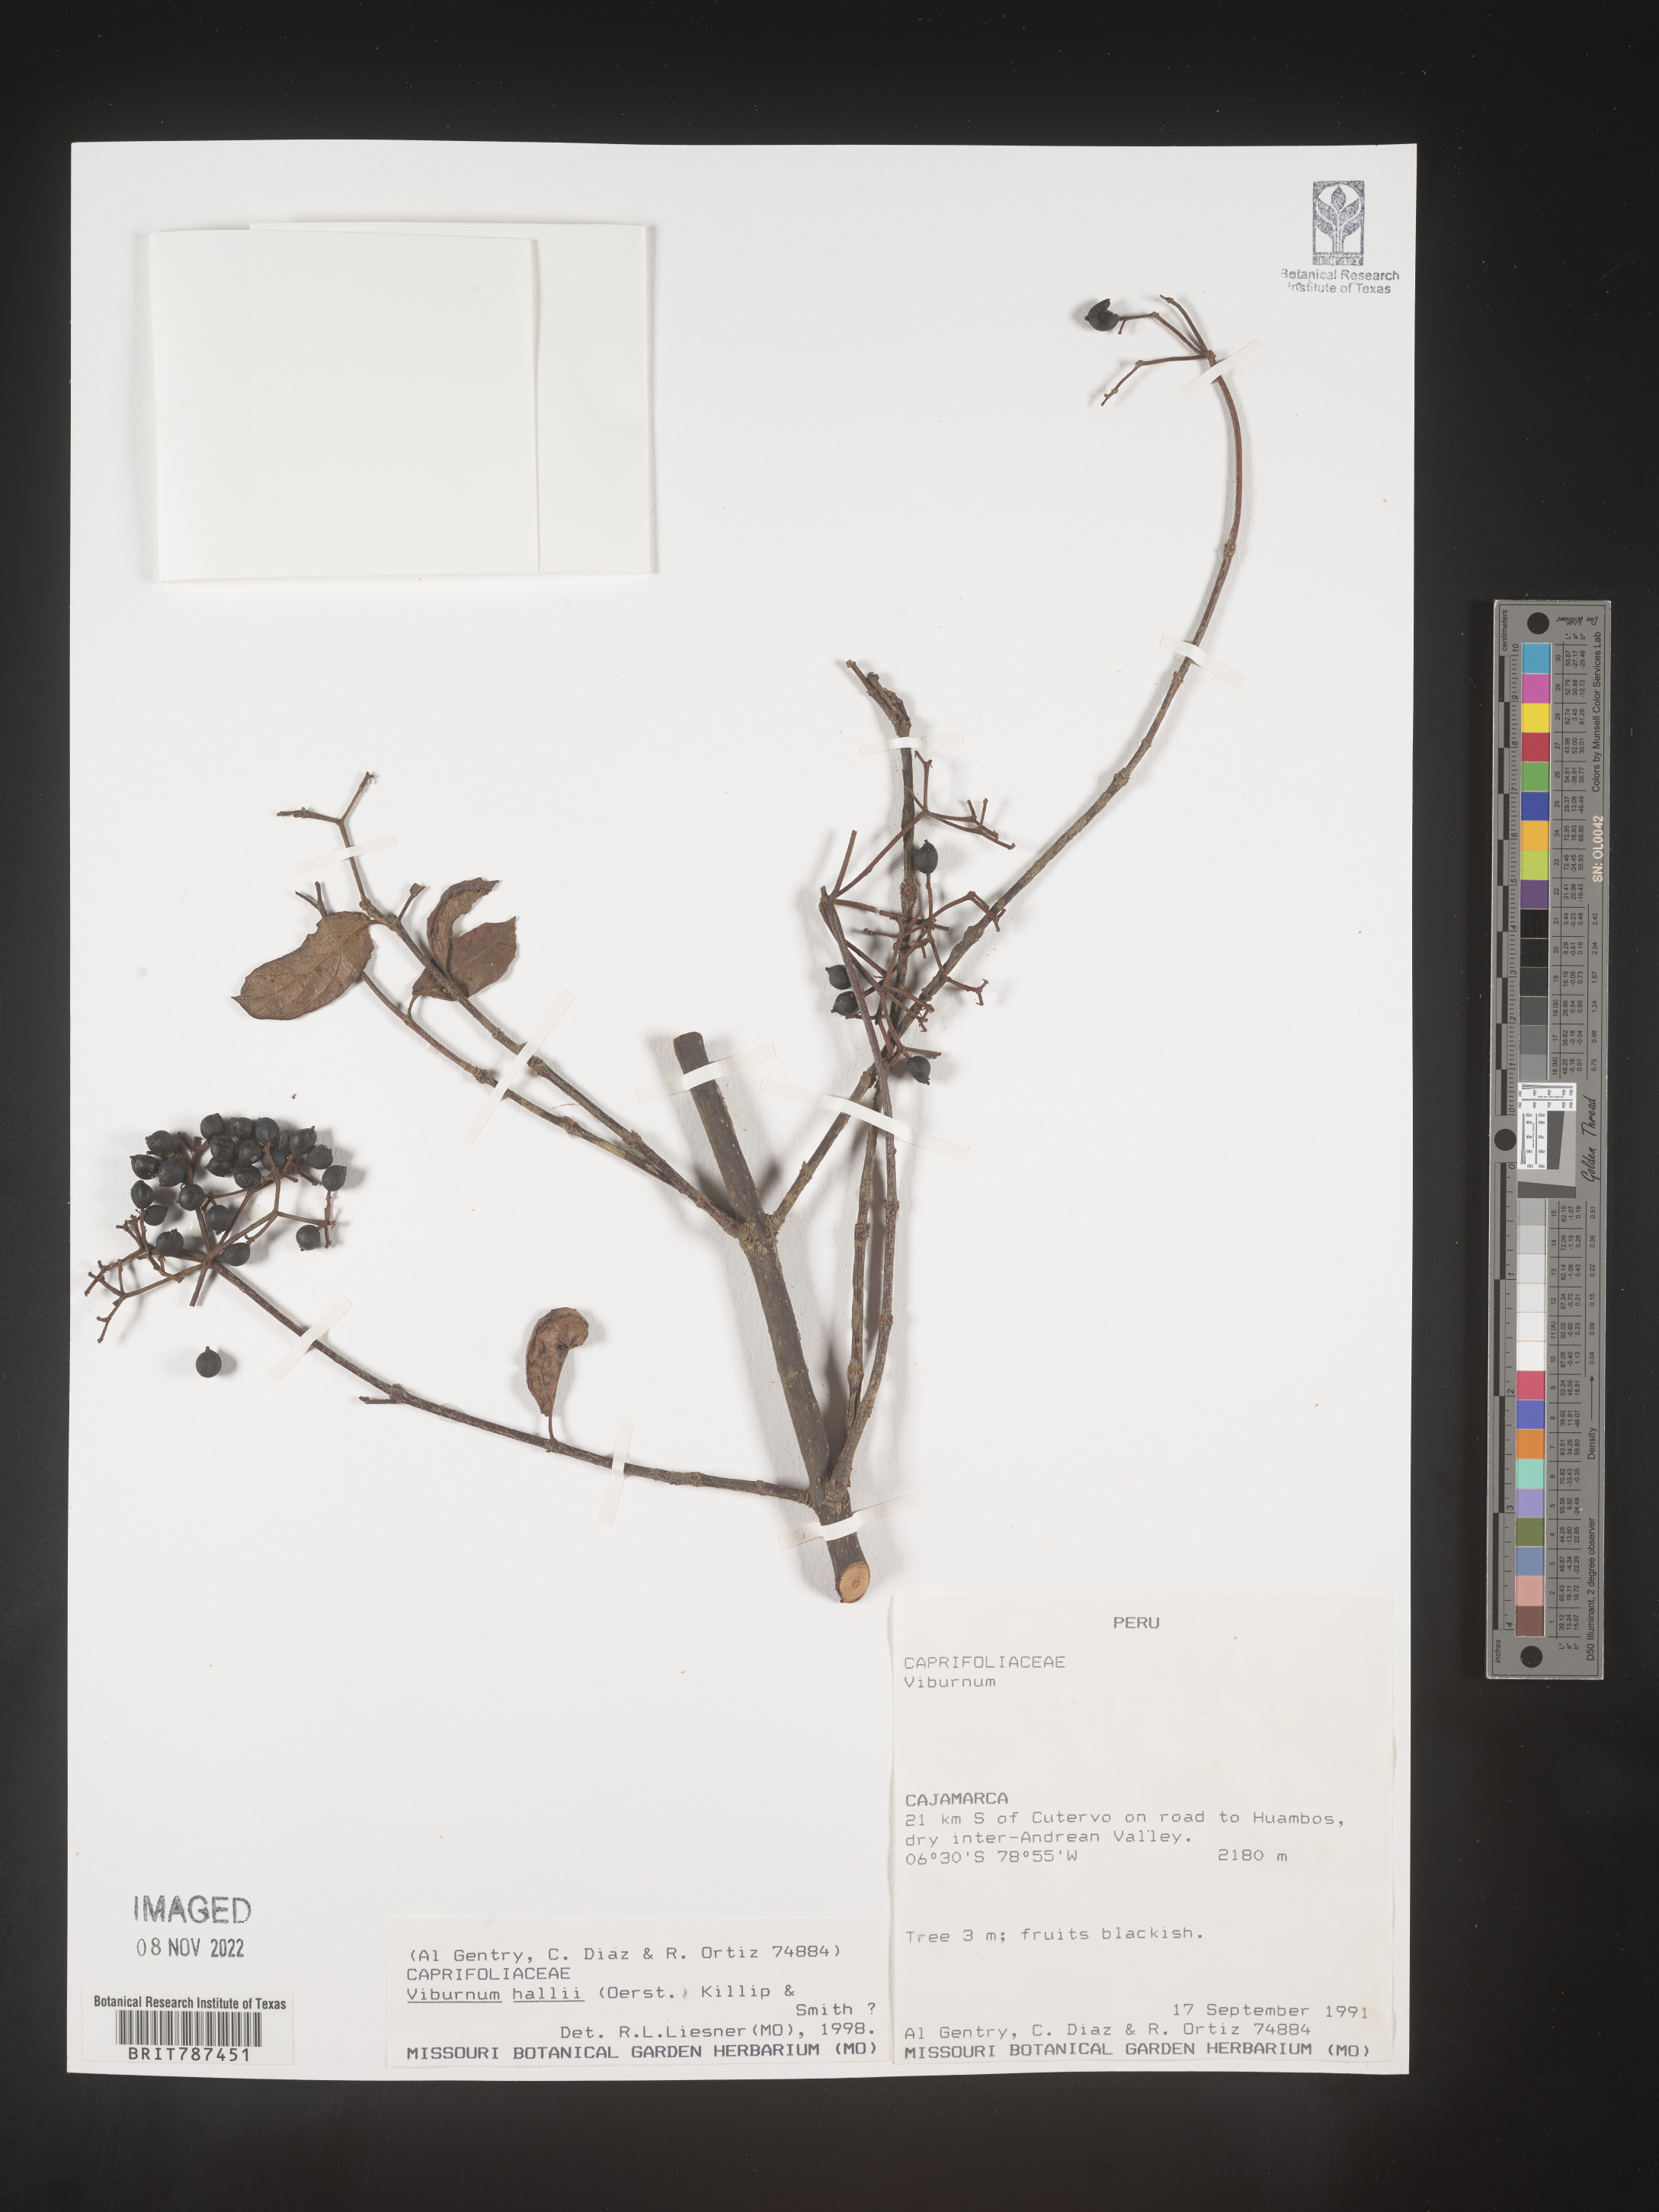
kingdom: Plantae
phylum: Tracheophyta
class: Magnoliopsida
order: Dipsacales
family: Viburnaceae
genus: Viburnum
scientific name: Viburnum
